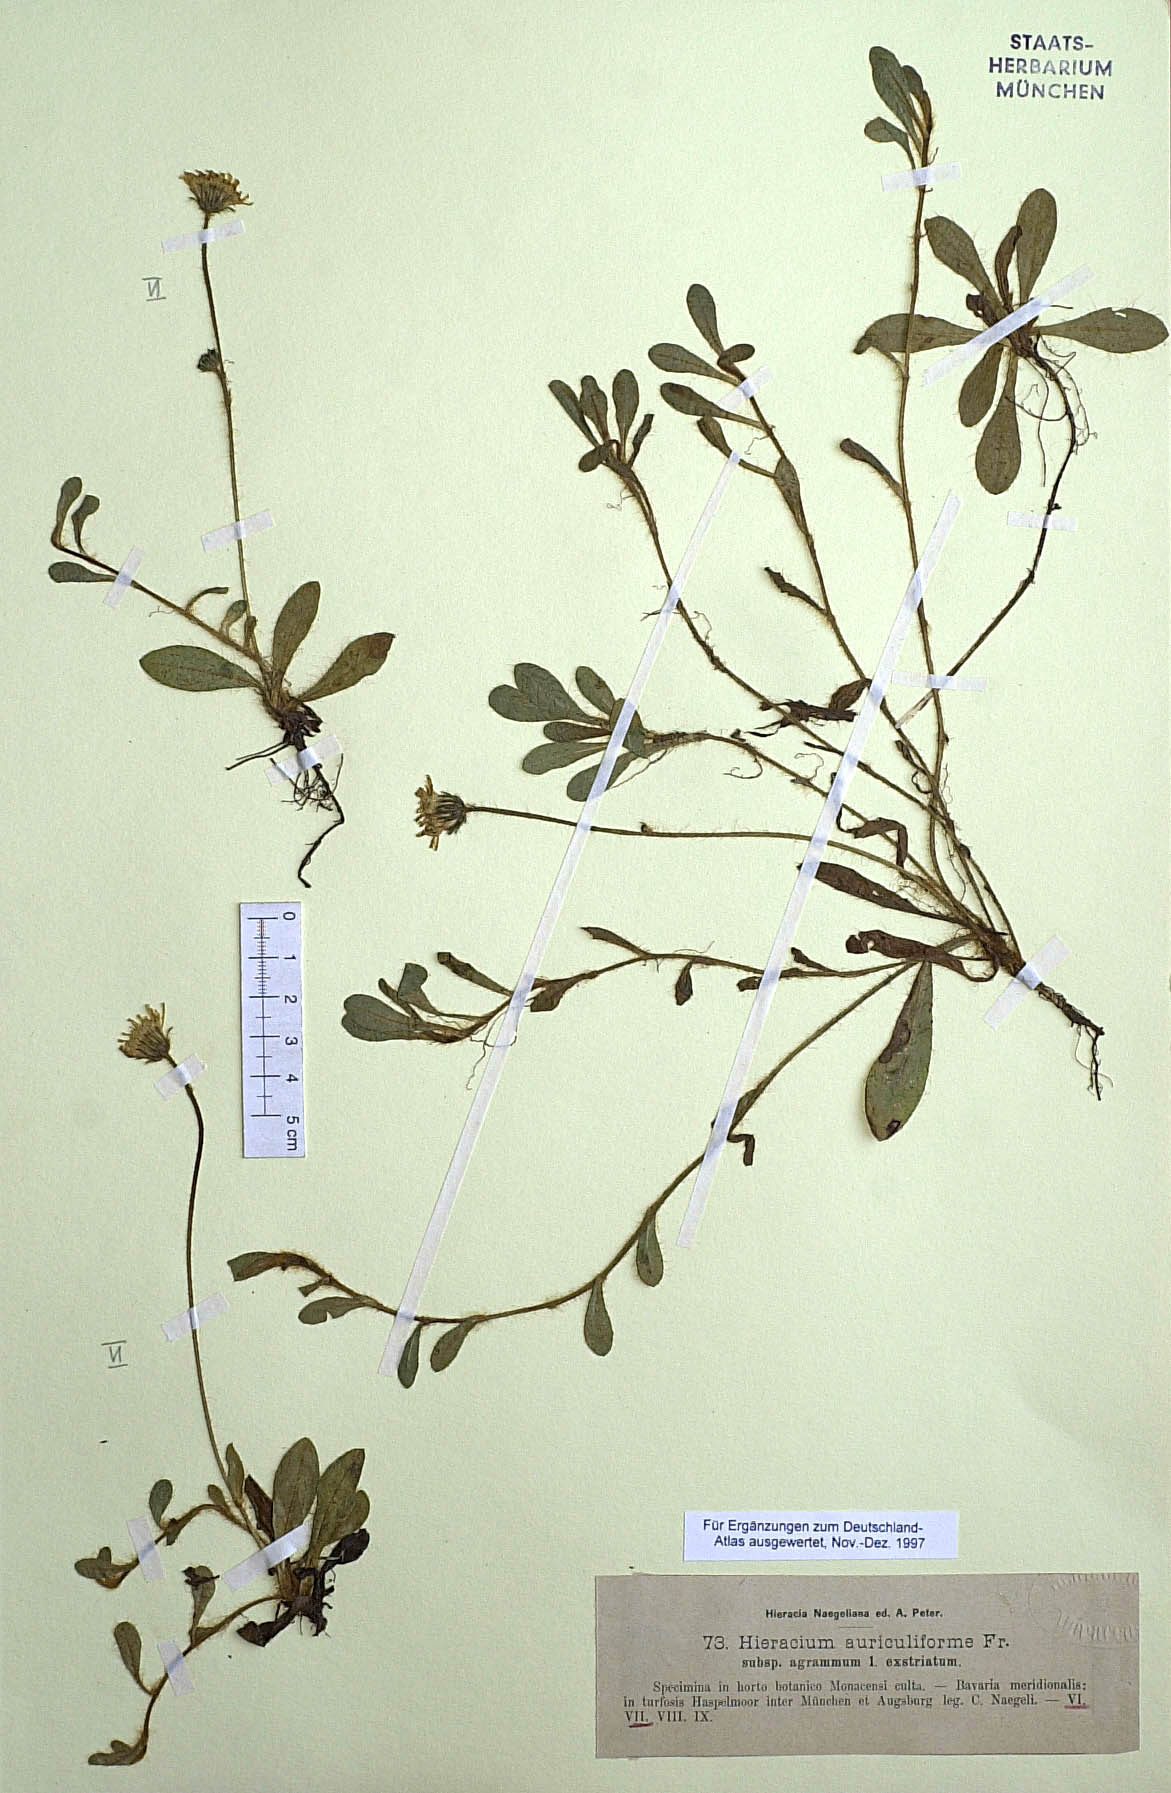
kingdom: Plantae
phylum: Tracheophyta
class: Magnoliopsida
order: Asterales
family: Asteraceae
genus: Pilosella
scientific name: Pilosella auriculiformis
